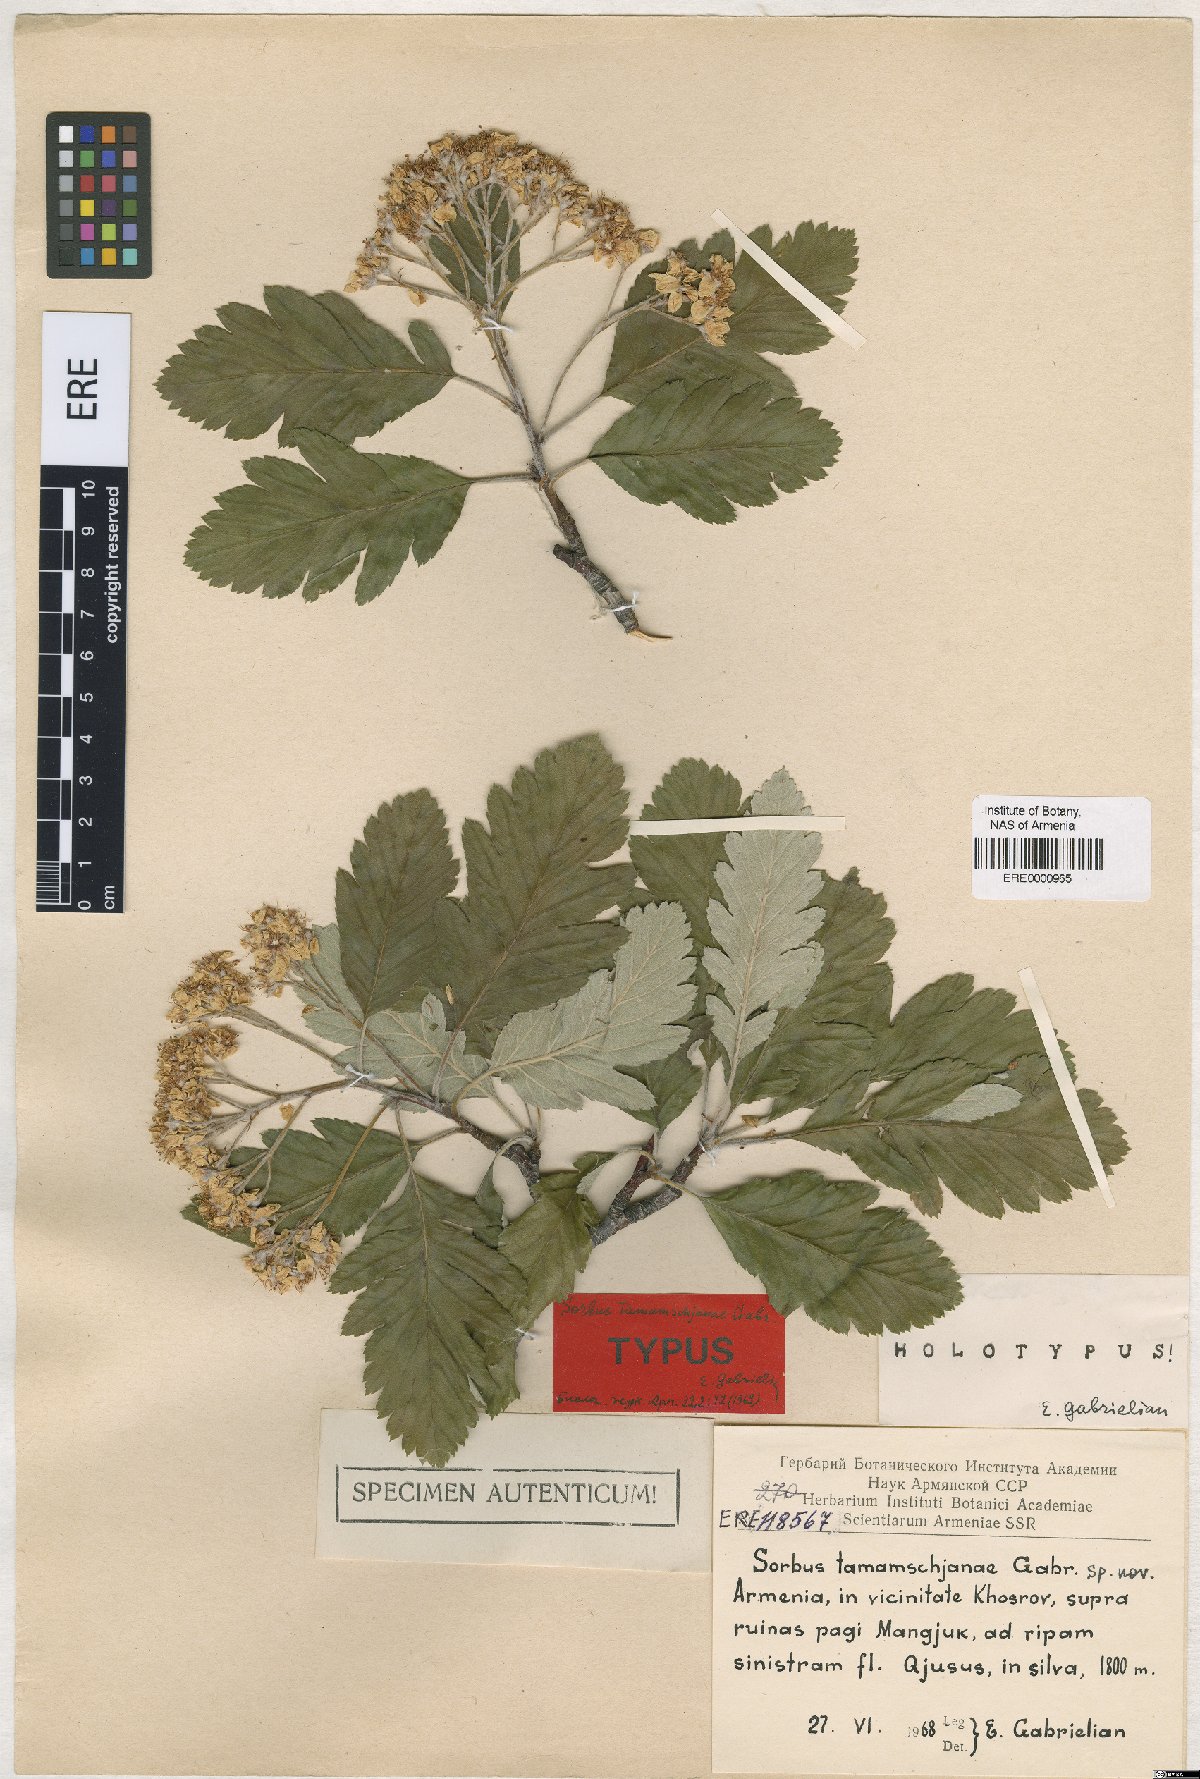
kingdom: Plantae
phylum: Tracheophyta
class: Magnoliopsida
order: Rosales
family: Rosaceae
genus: Hedlundia
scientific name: Hedlundia tamamschjanae
